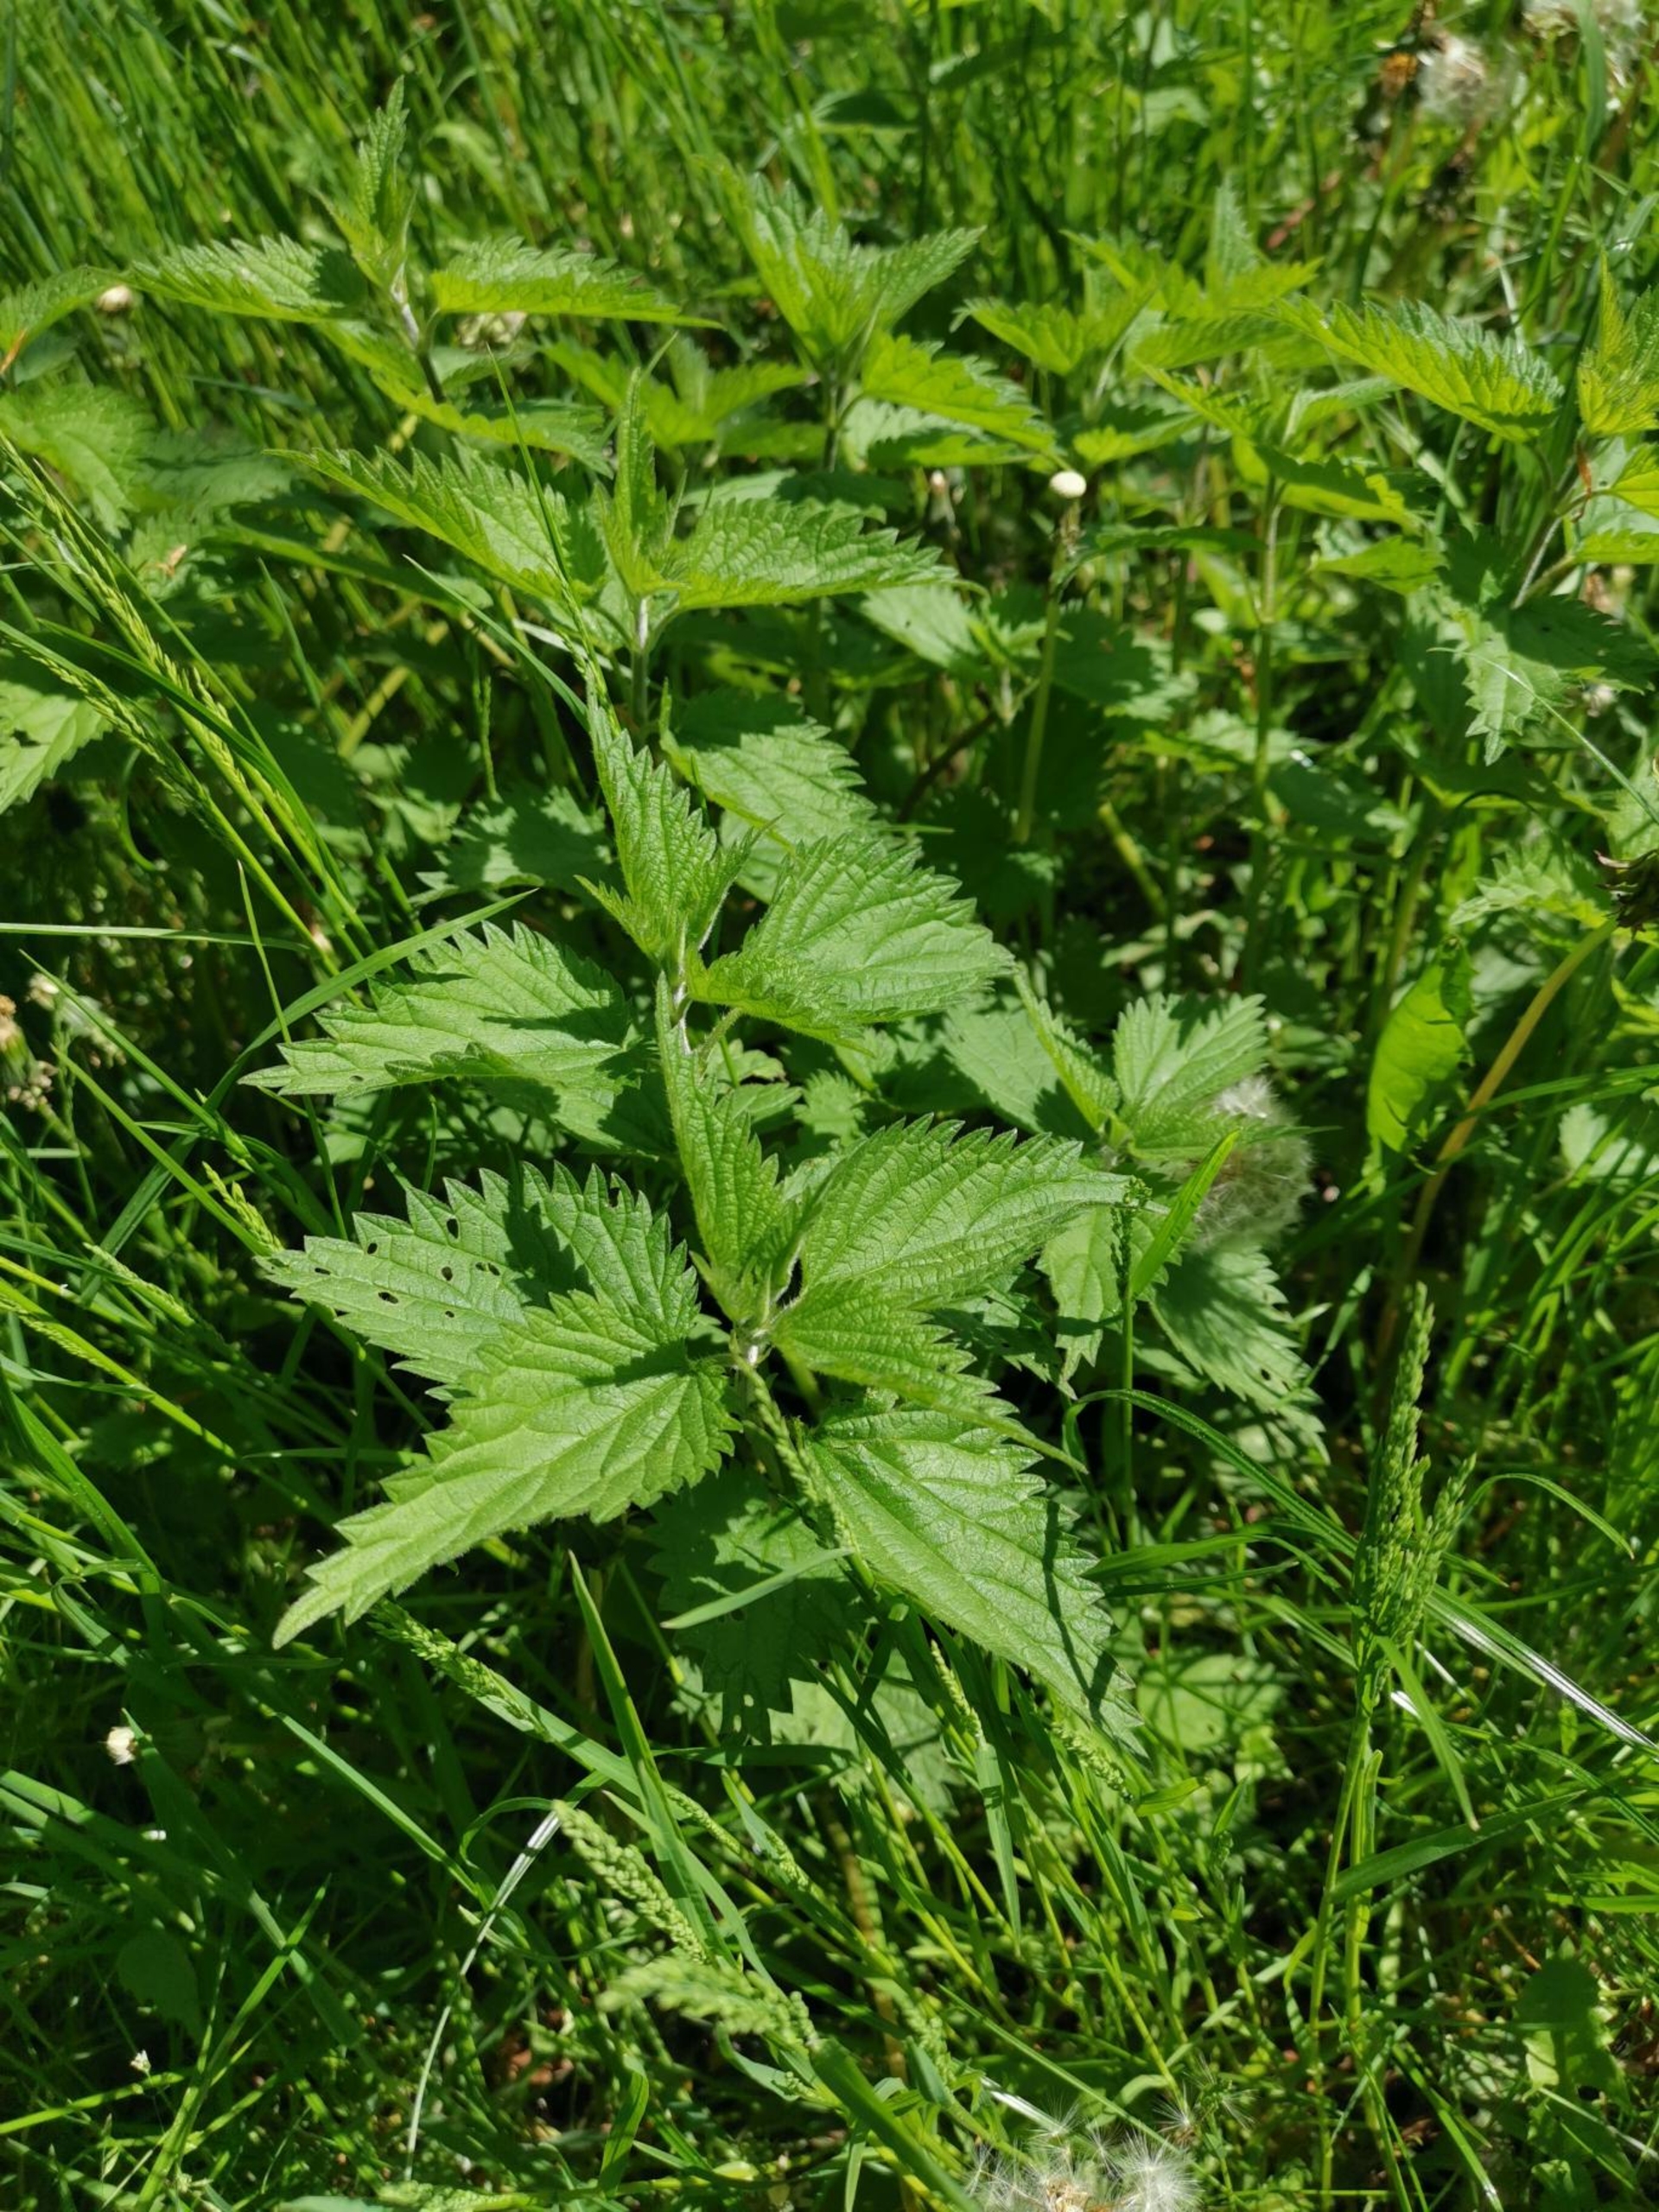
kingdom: Plantae
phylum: Tracheophyta
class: Magnoliopsida
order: Rosales
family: Urticaceae
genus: Urtica
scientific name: Urtica dioica
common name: Stor nælde
